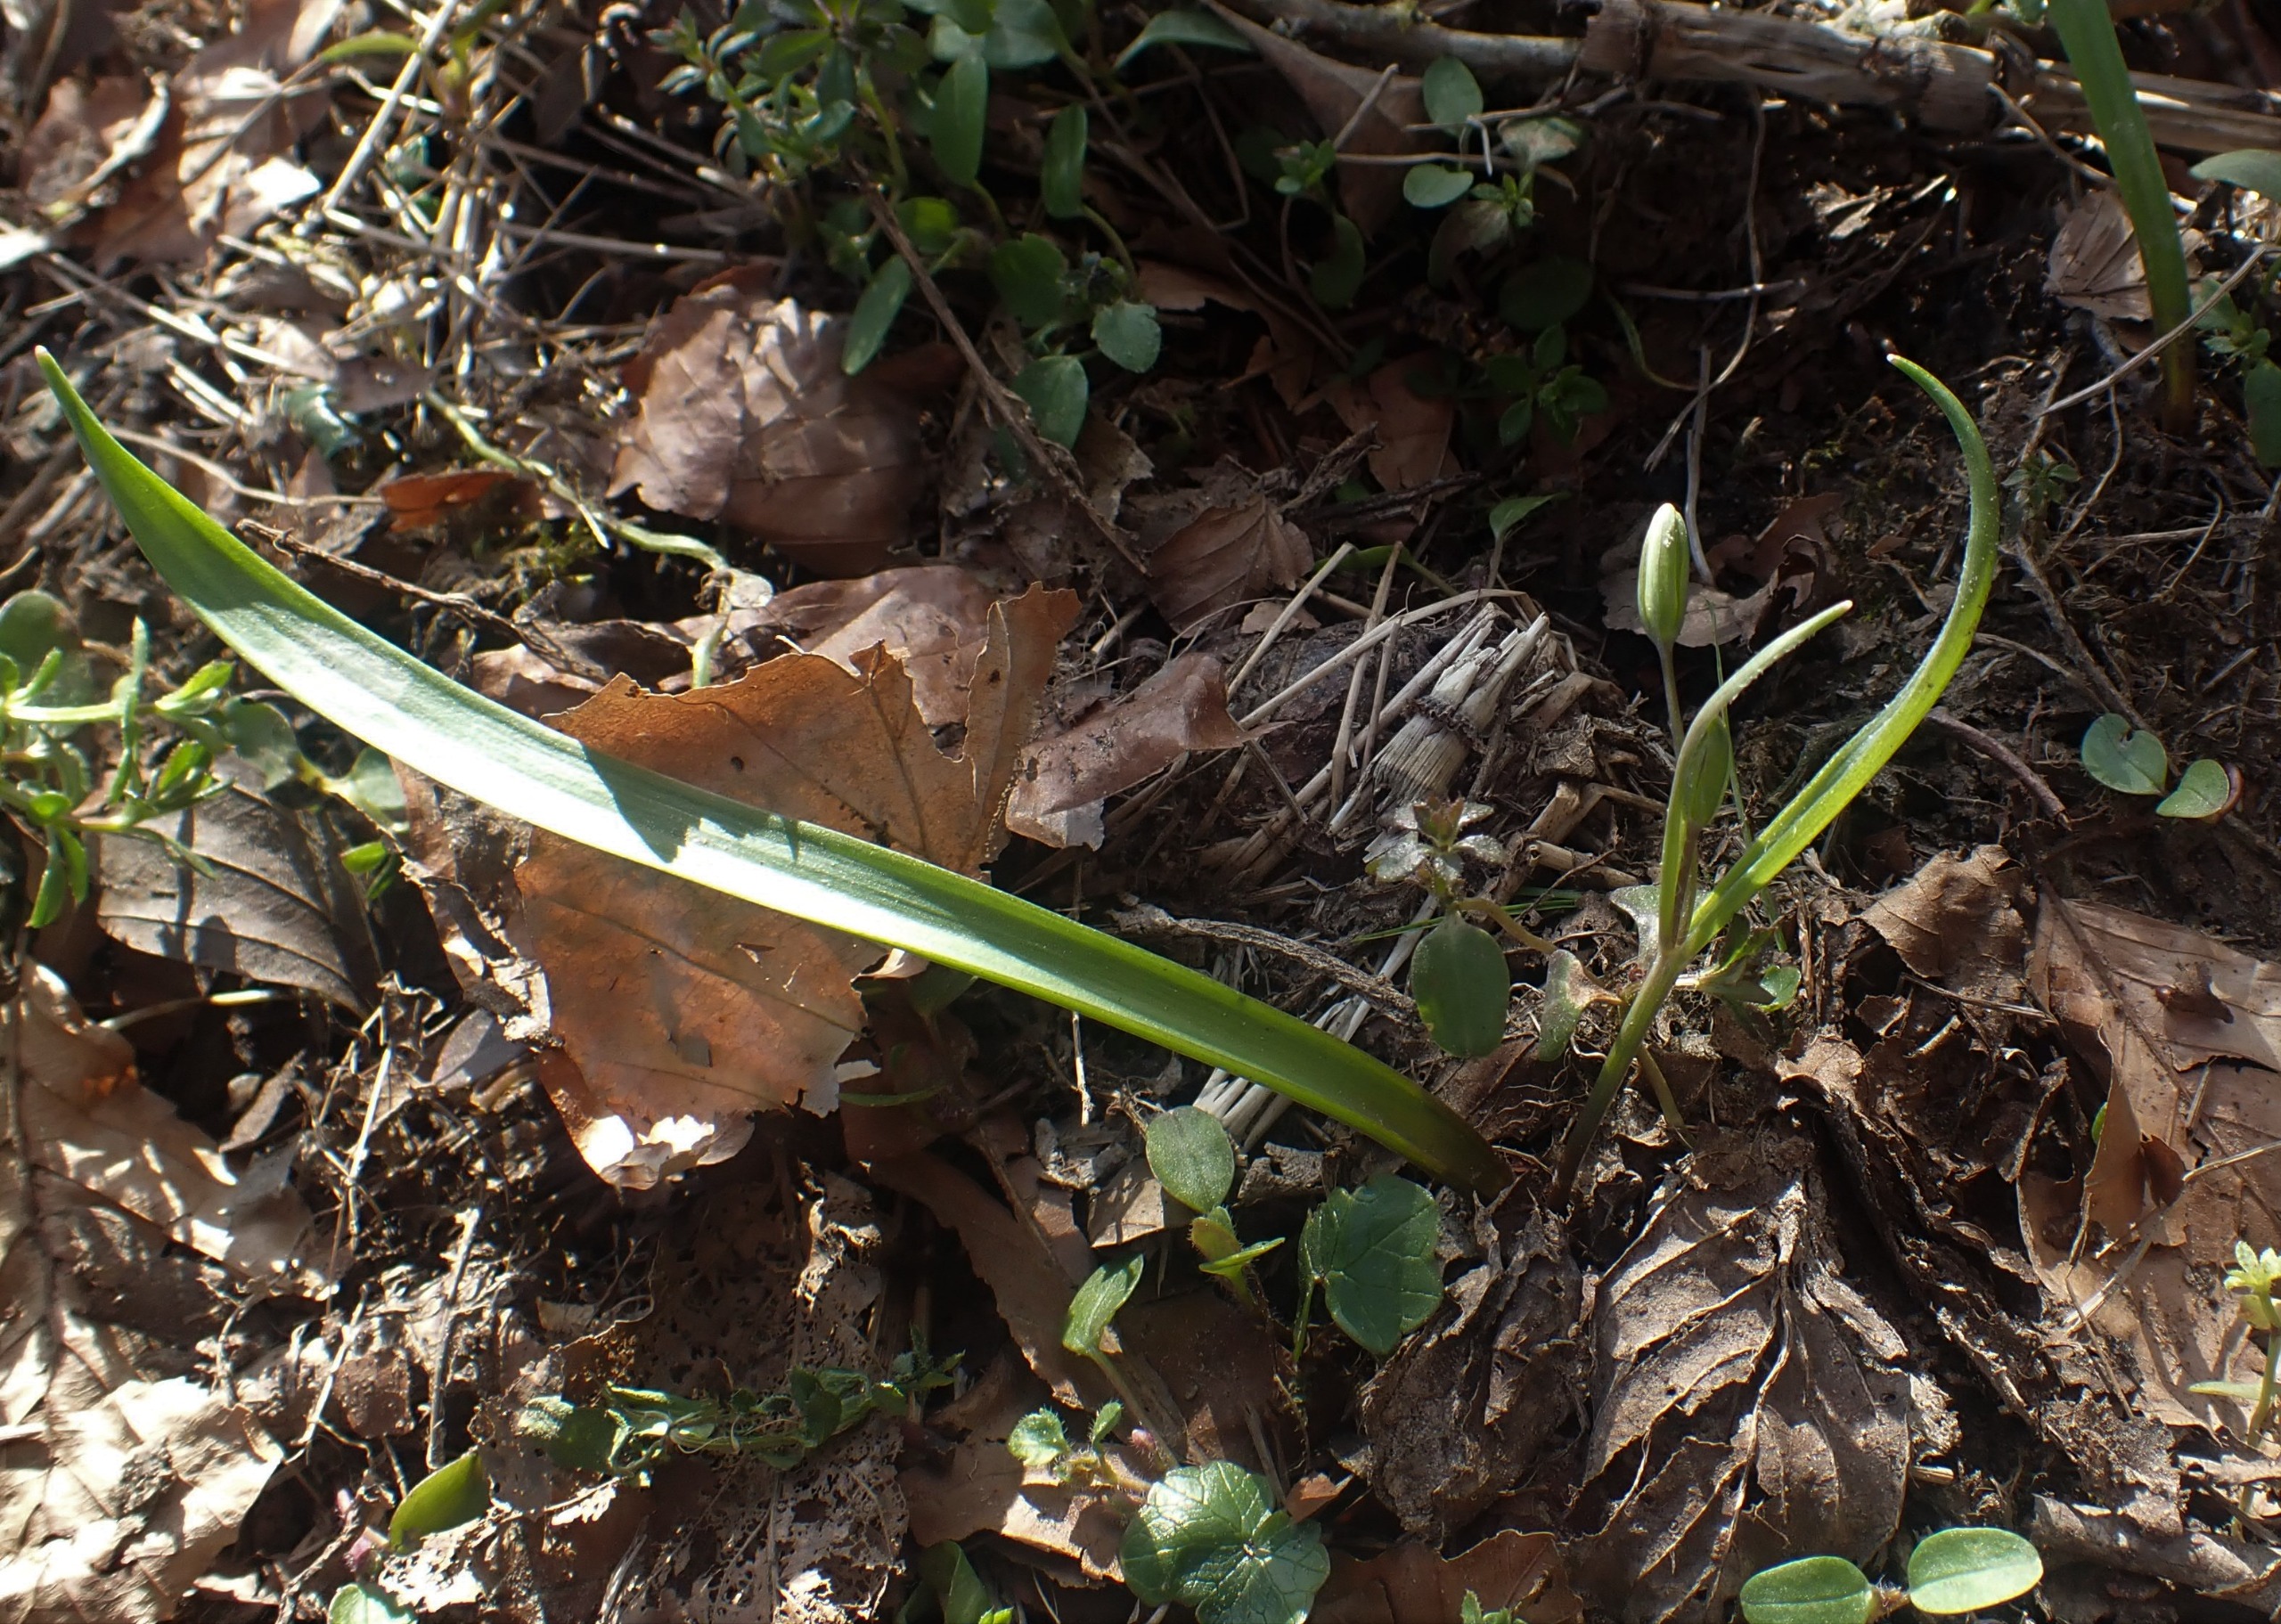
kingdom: Plantae
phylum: Tracheophyta
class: Liliopsida
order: Liliales
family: Liliaceae
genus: Gagea
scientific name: Gagea lutea
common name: Almindelig guldstjerne
